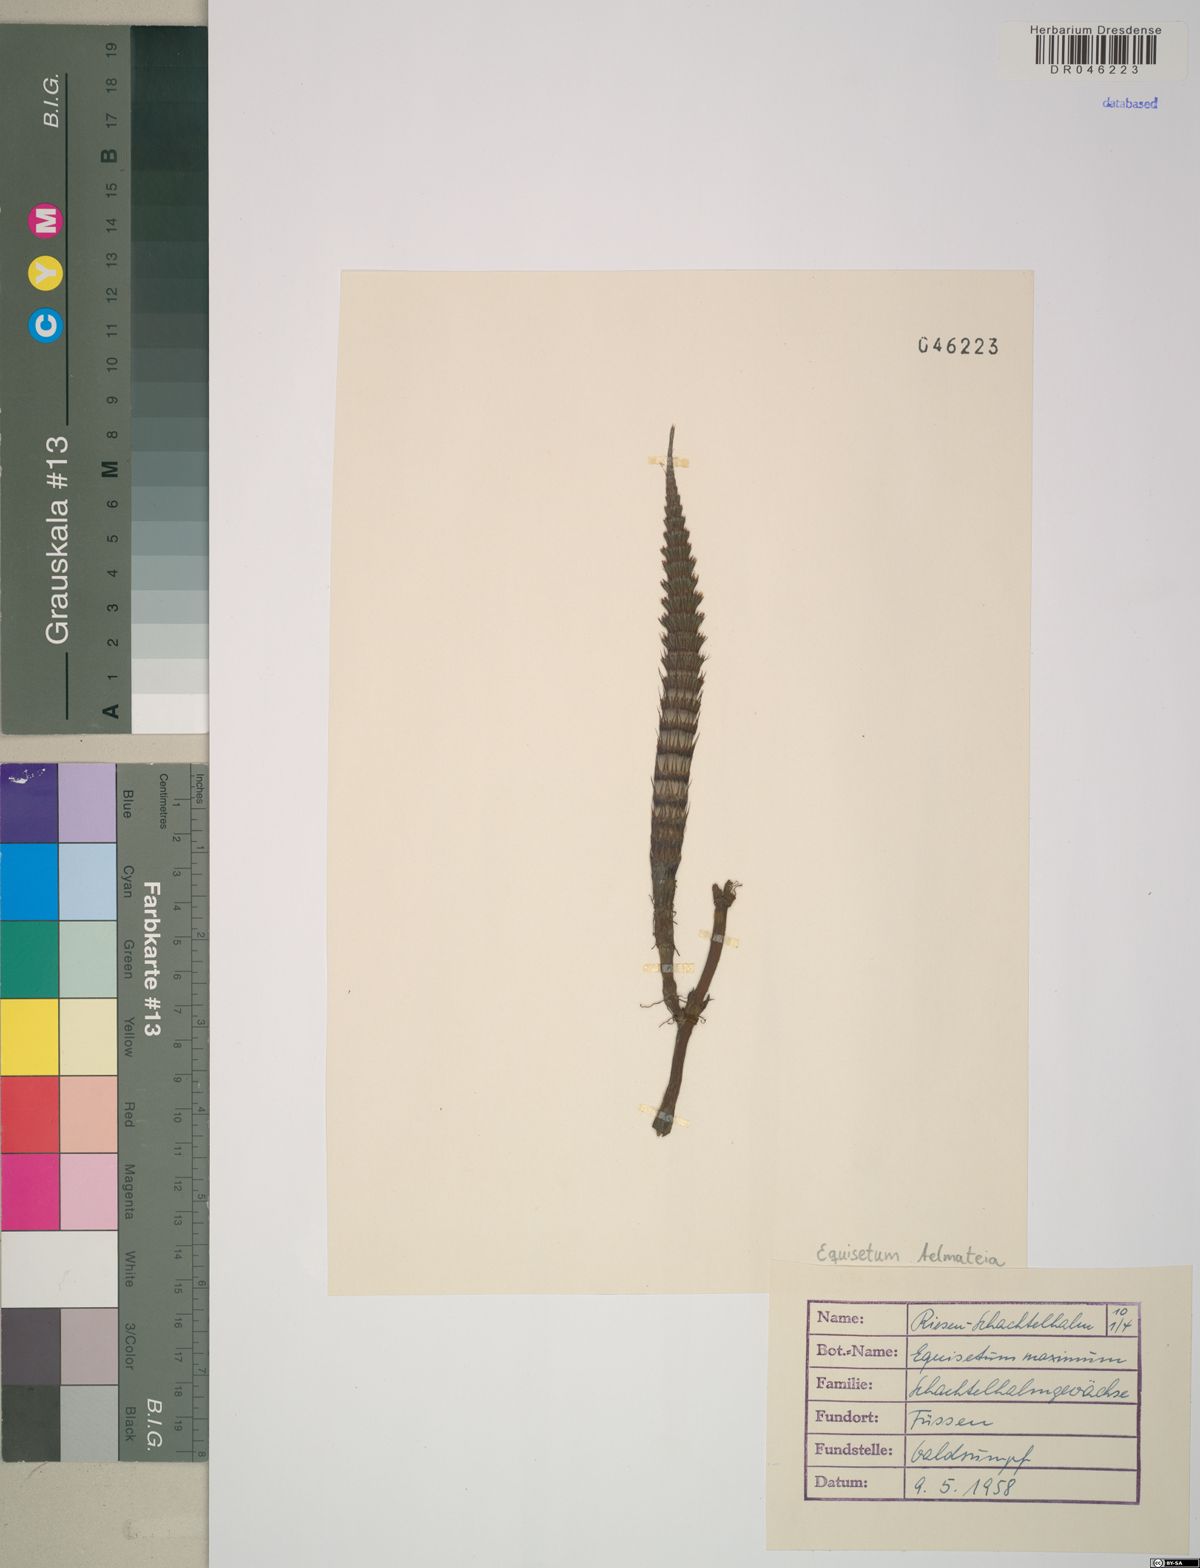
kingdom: Plantae
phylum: Tracheophyta
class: Polypodiopsida
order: Equisetales
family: Equisetaceae
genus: Equisetum
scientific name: Equisetum telmateia
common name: Great horsetail
